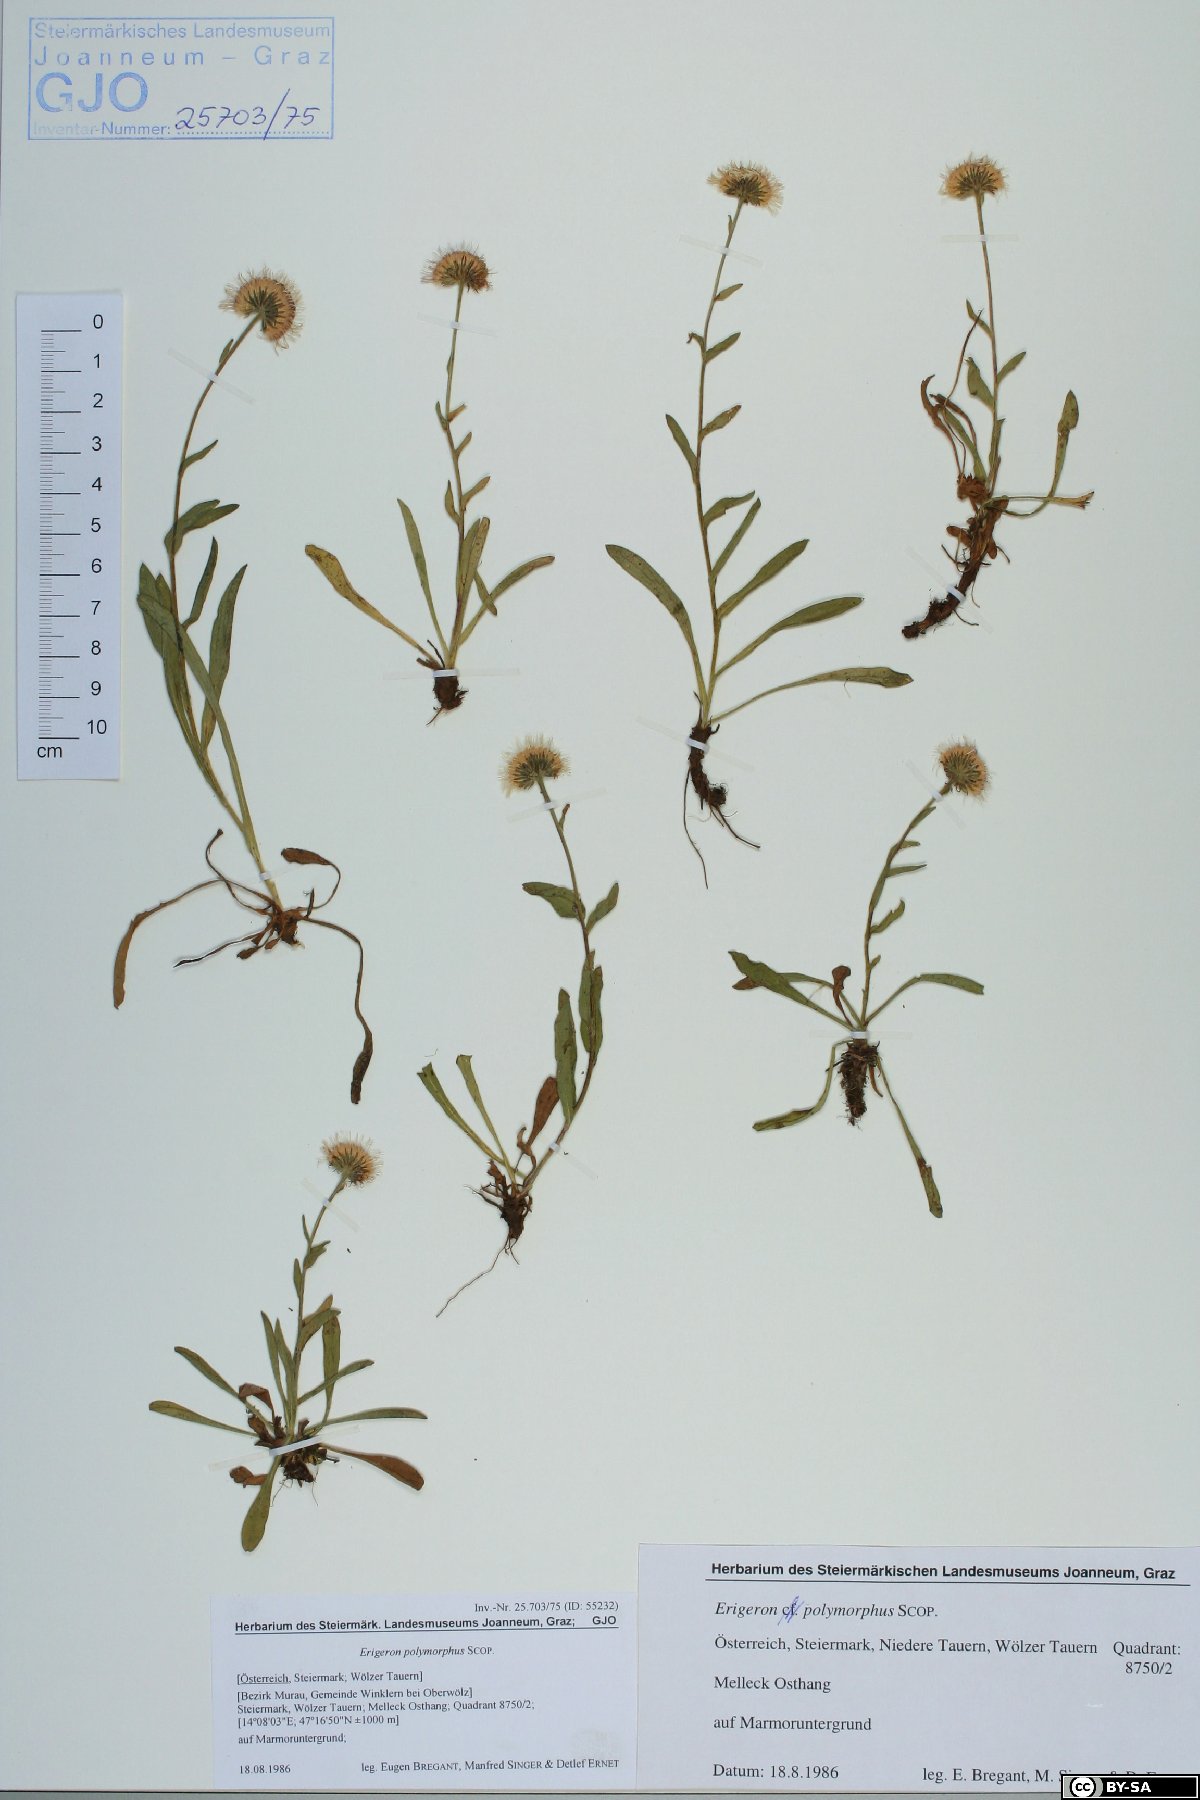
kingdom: Plantae
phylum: Tracheophyta
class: Magnoliopsida
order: Asterales
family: Asteraceae
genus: Erigeron
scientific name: Erigeron alpinus
